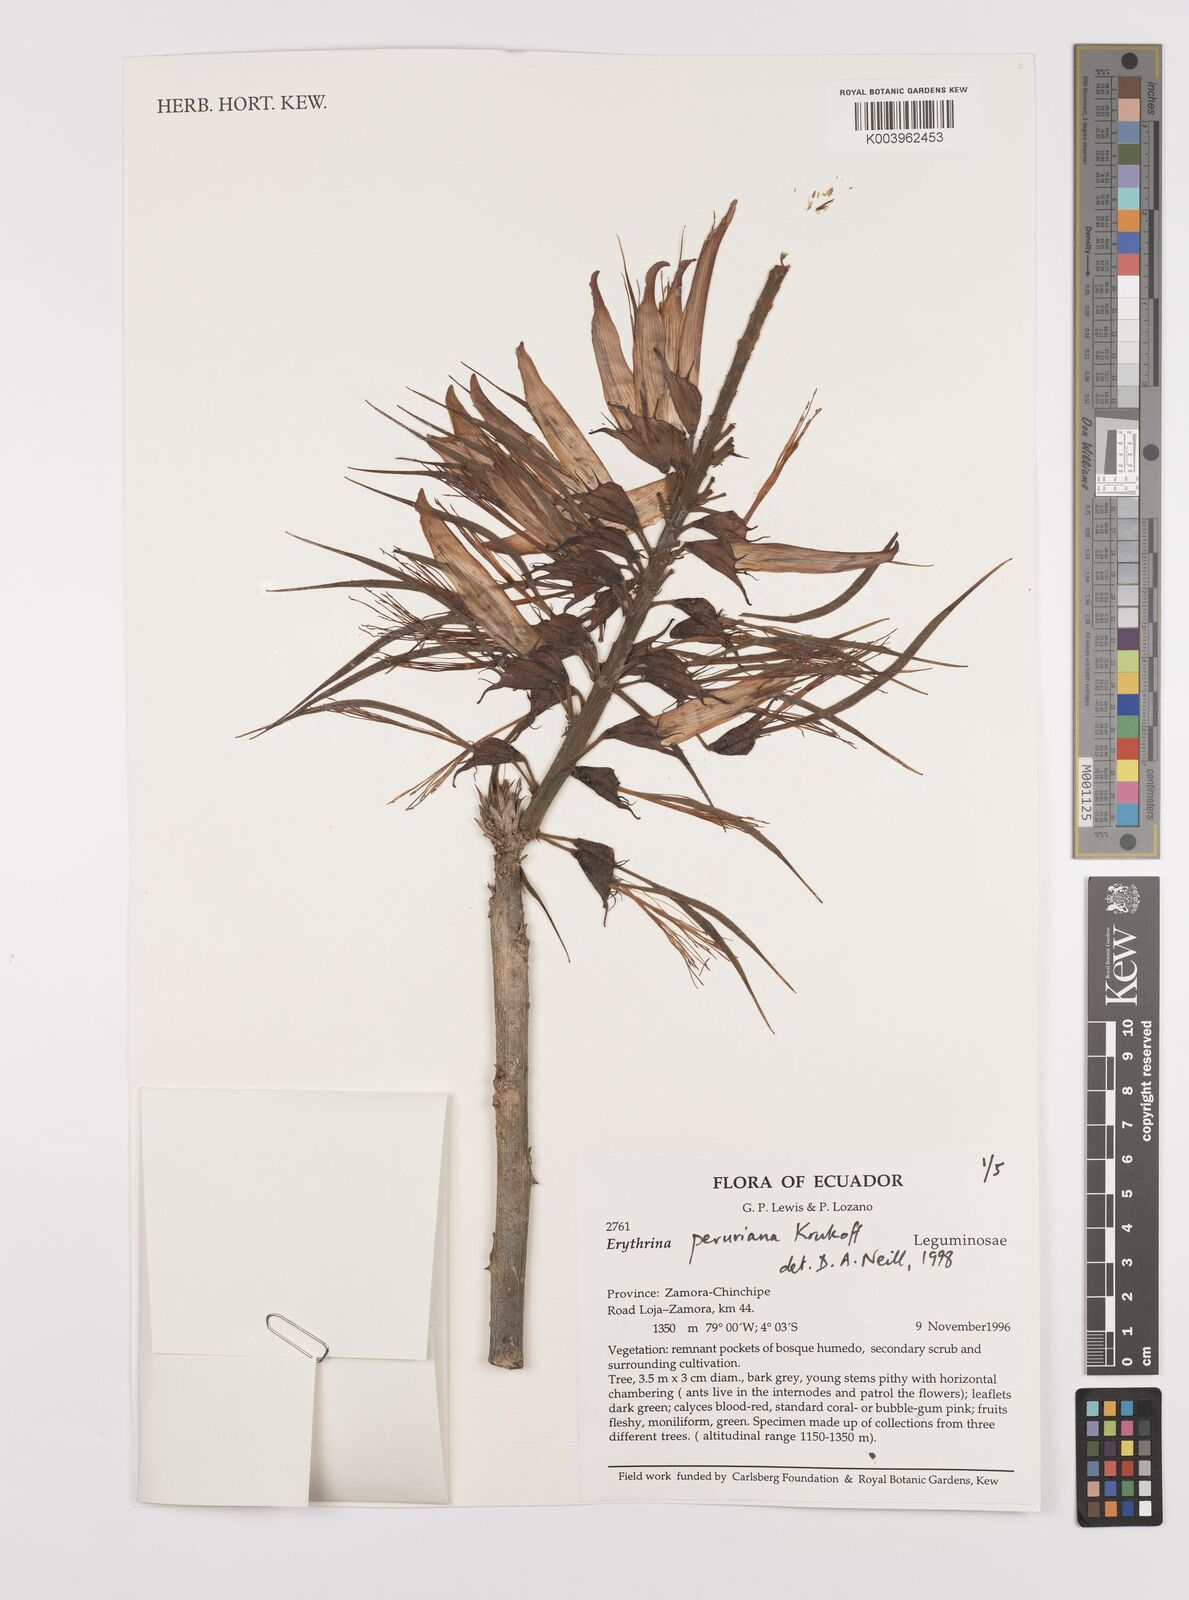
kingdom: Plantae
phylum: Tracheophyta
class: Magnoliopsida
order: Fabales
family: Fabaceae
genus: Erythrina
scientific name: Erythrina peruviana
